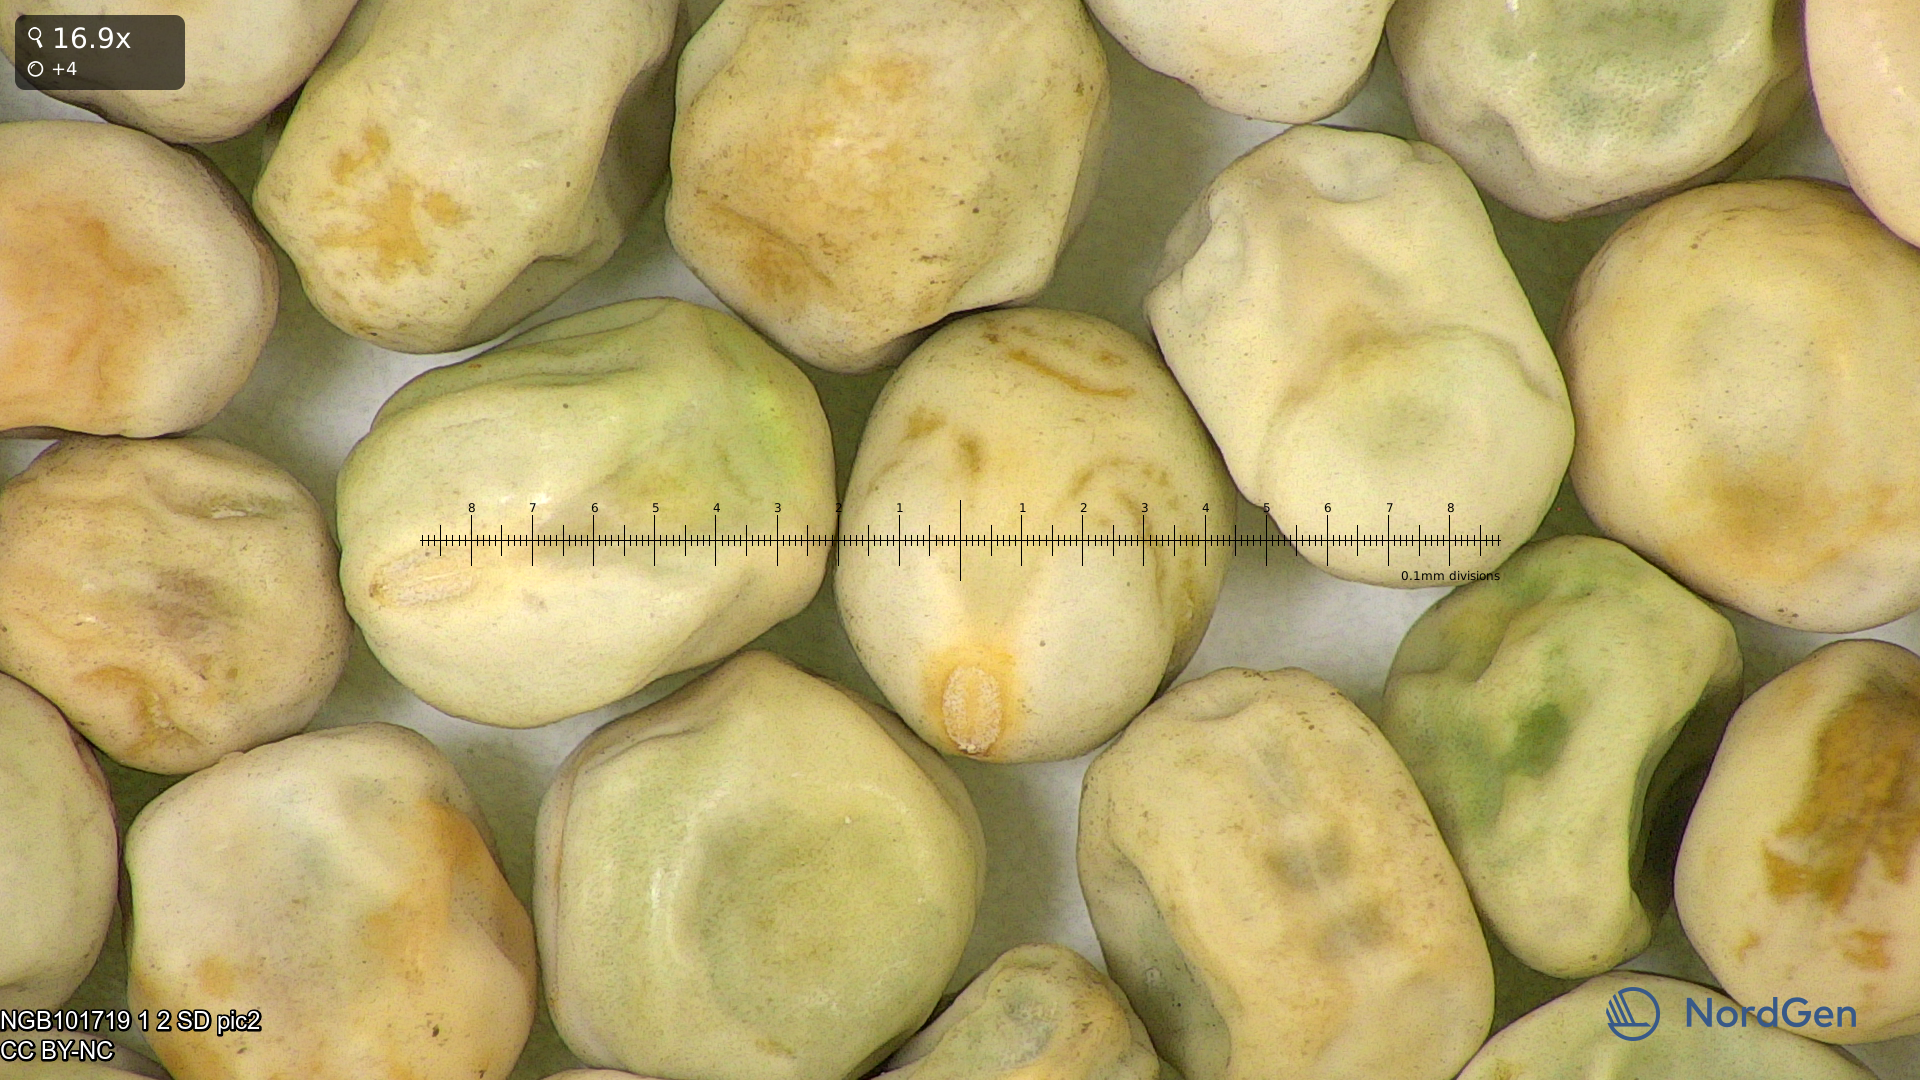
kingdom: Plantae
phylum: Tracheophyta
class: Magnoliopsida
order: Fabales
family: Fabaceae
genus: Lathyrus
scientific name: Lathyrus oleraceus
